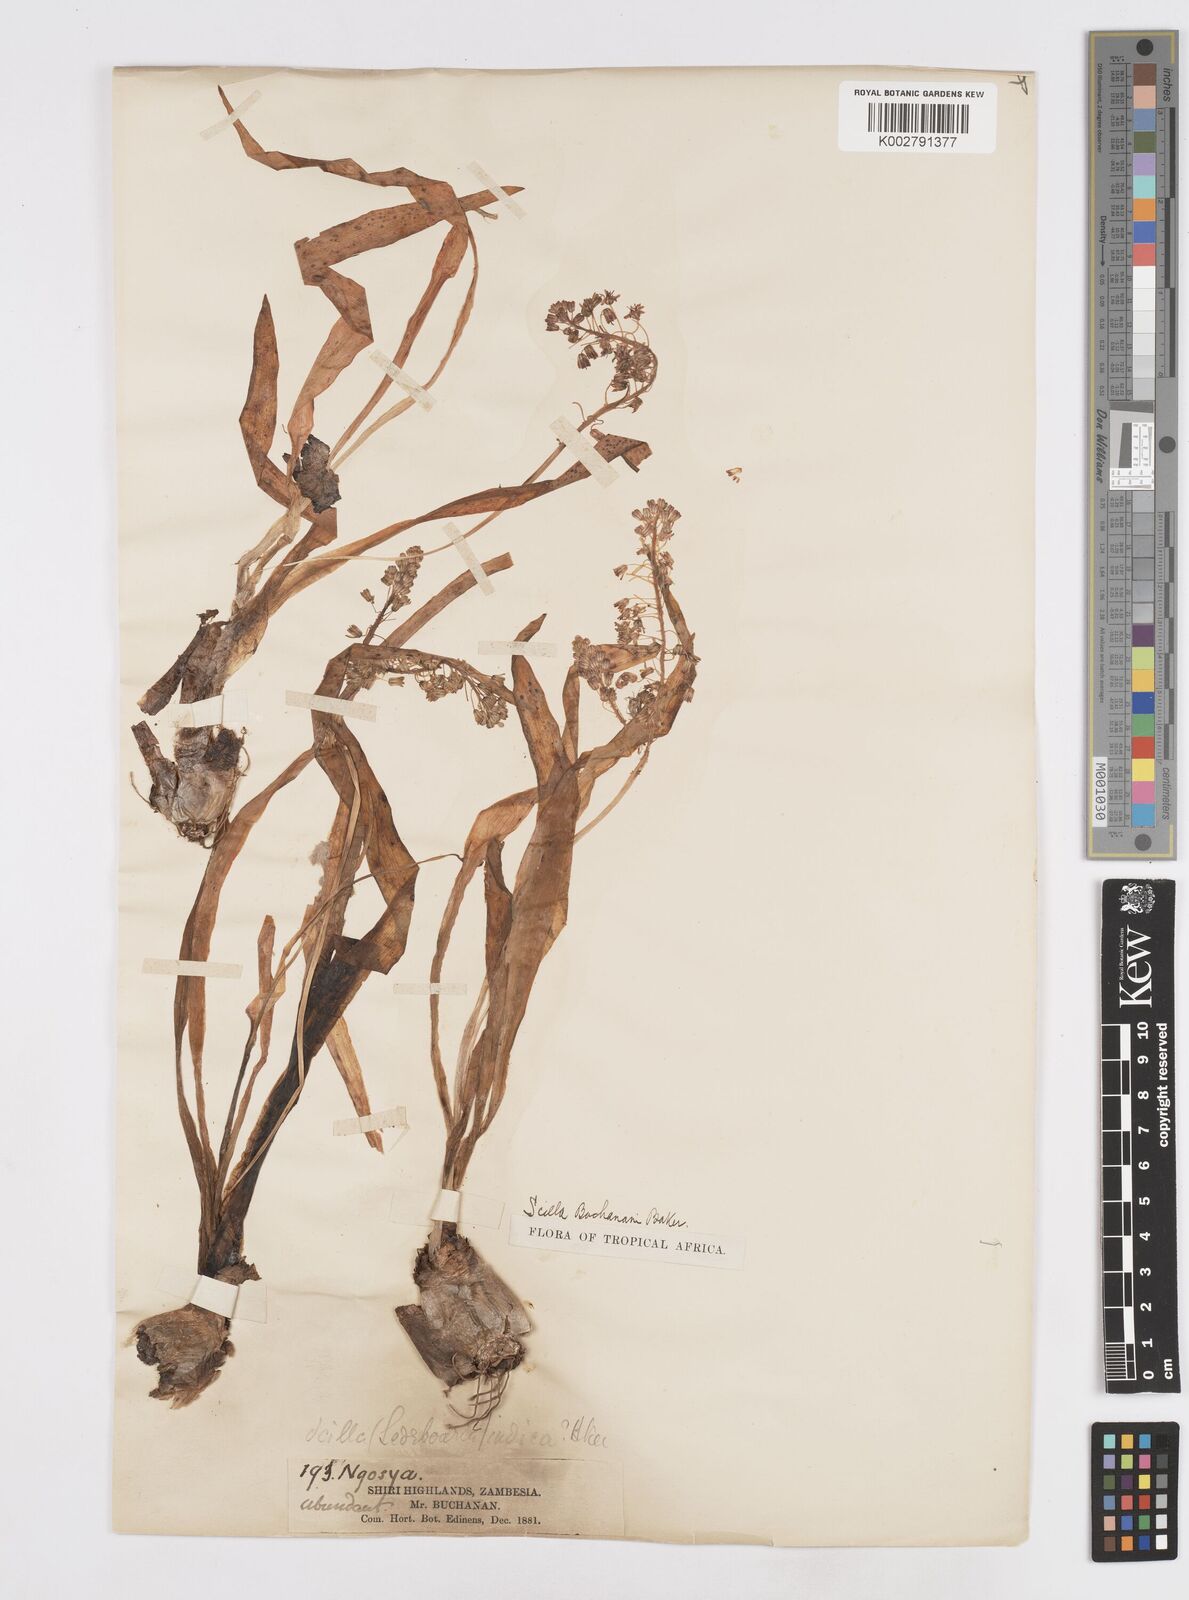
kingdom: Plantae
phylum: Tracheophyta
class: Liliopsida
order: Asparagales
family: Asparagaceae
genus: Scilla
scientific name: Scilla buchananii
